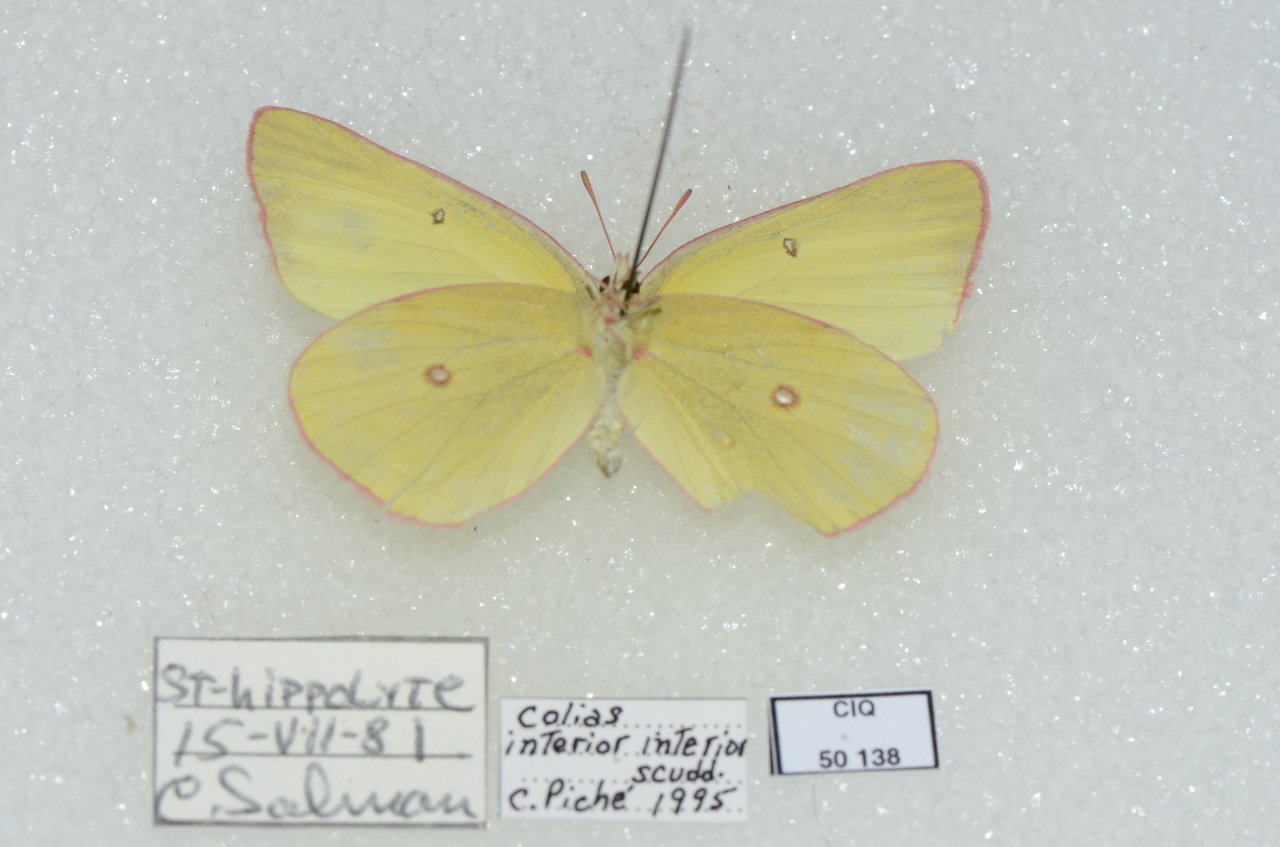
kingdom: Animalia
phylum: Arthropoda
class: Insecta
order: Lepidoptera
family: Pieridae
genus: Colias
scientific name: Colias interior
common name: Pink-edged Sulphur
